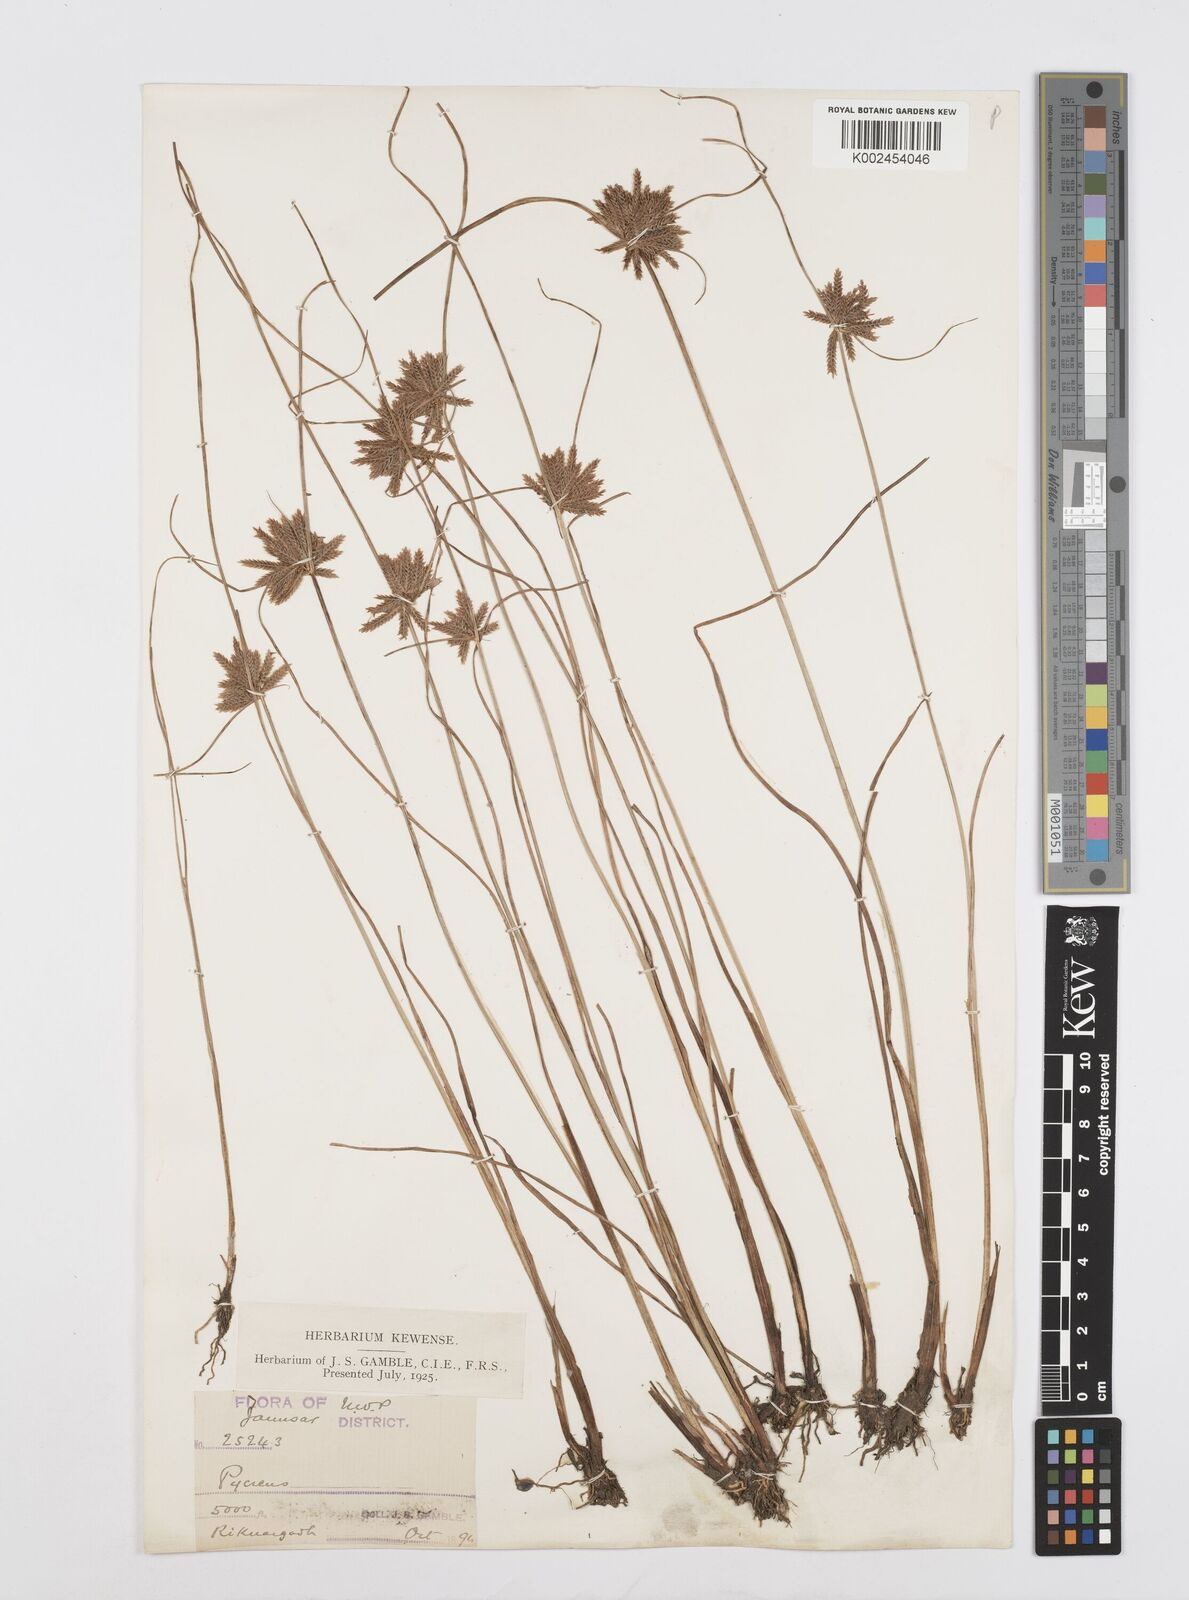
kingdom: Plantae
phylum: Tracheophyta
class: Liliopsida
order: Poales
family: Cyperaceae
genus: Cyperus
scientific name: Cyperus flavidus
